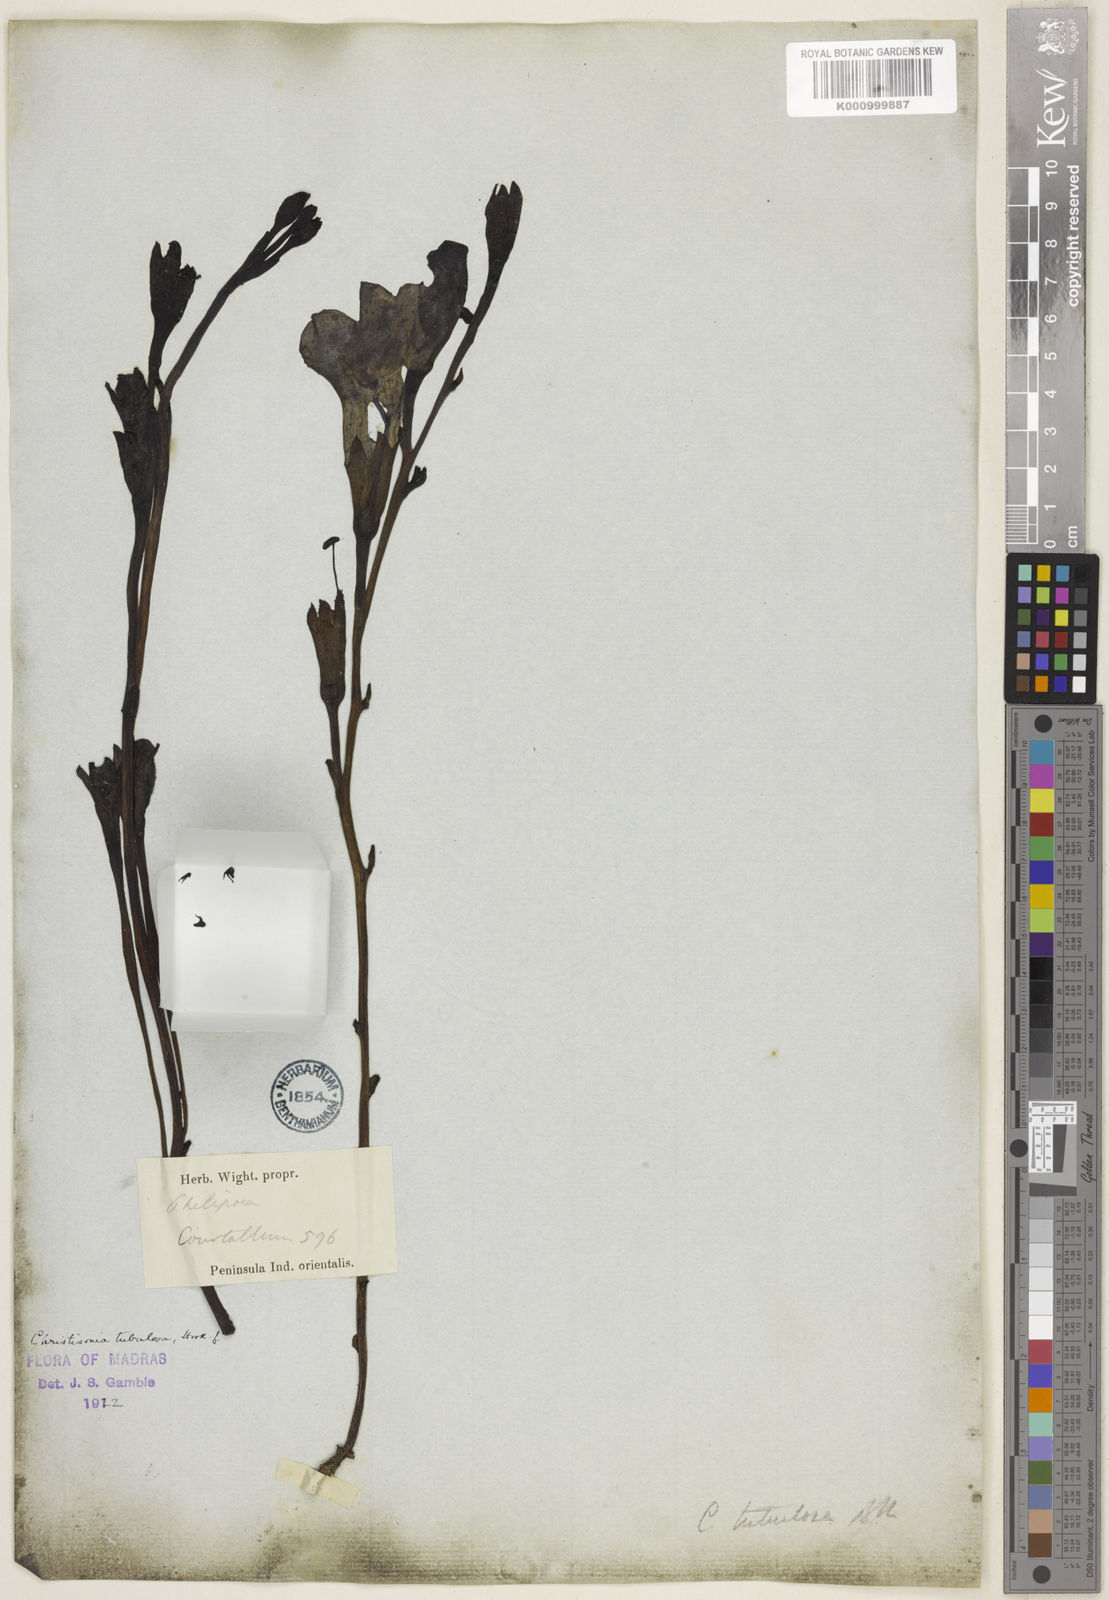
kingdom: Plantae
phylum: Tracheophyta
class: Magnoliopsida
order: Lamiales
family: Orobanchaceae
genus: Christisonia
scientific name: Christisonia tubulosa
